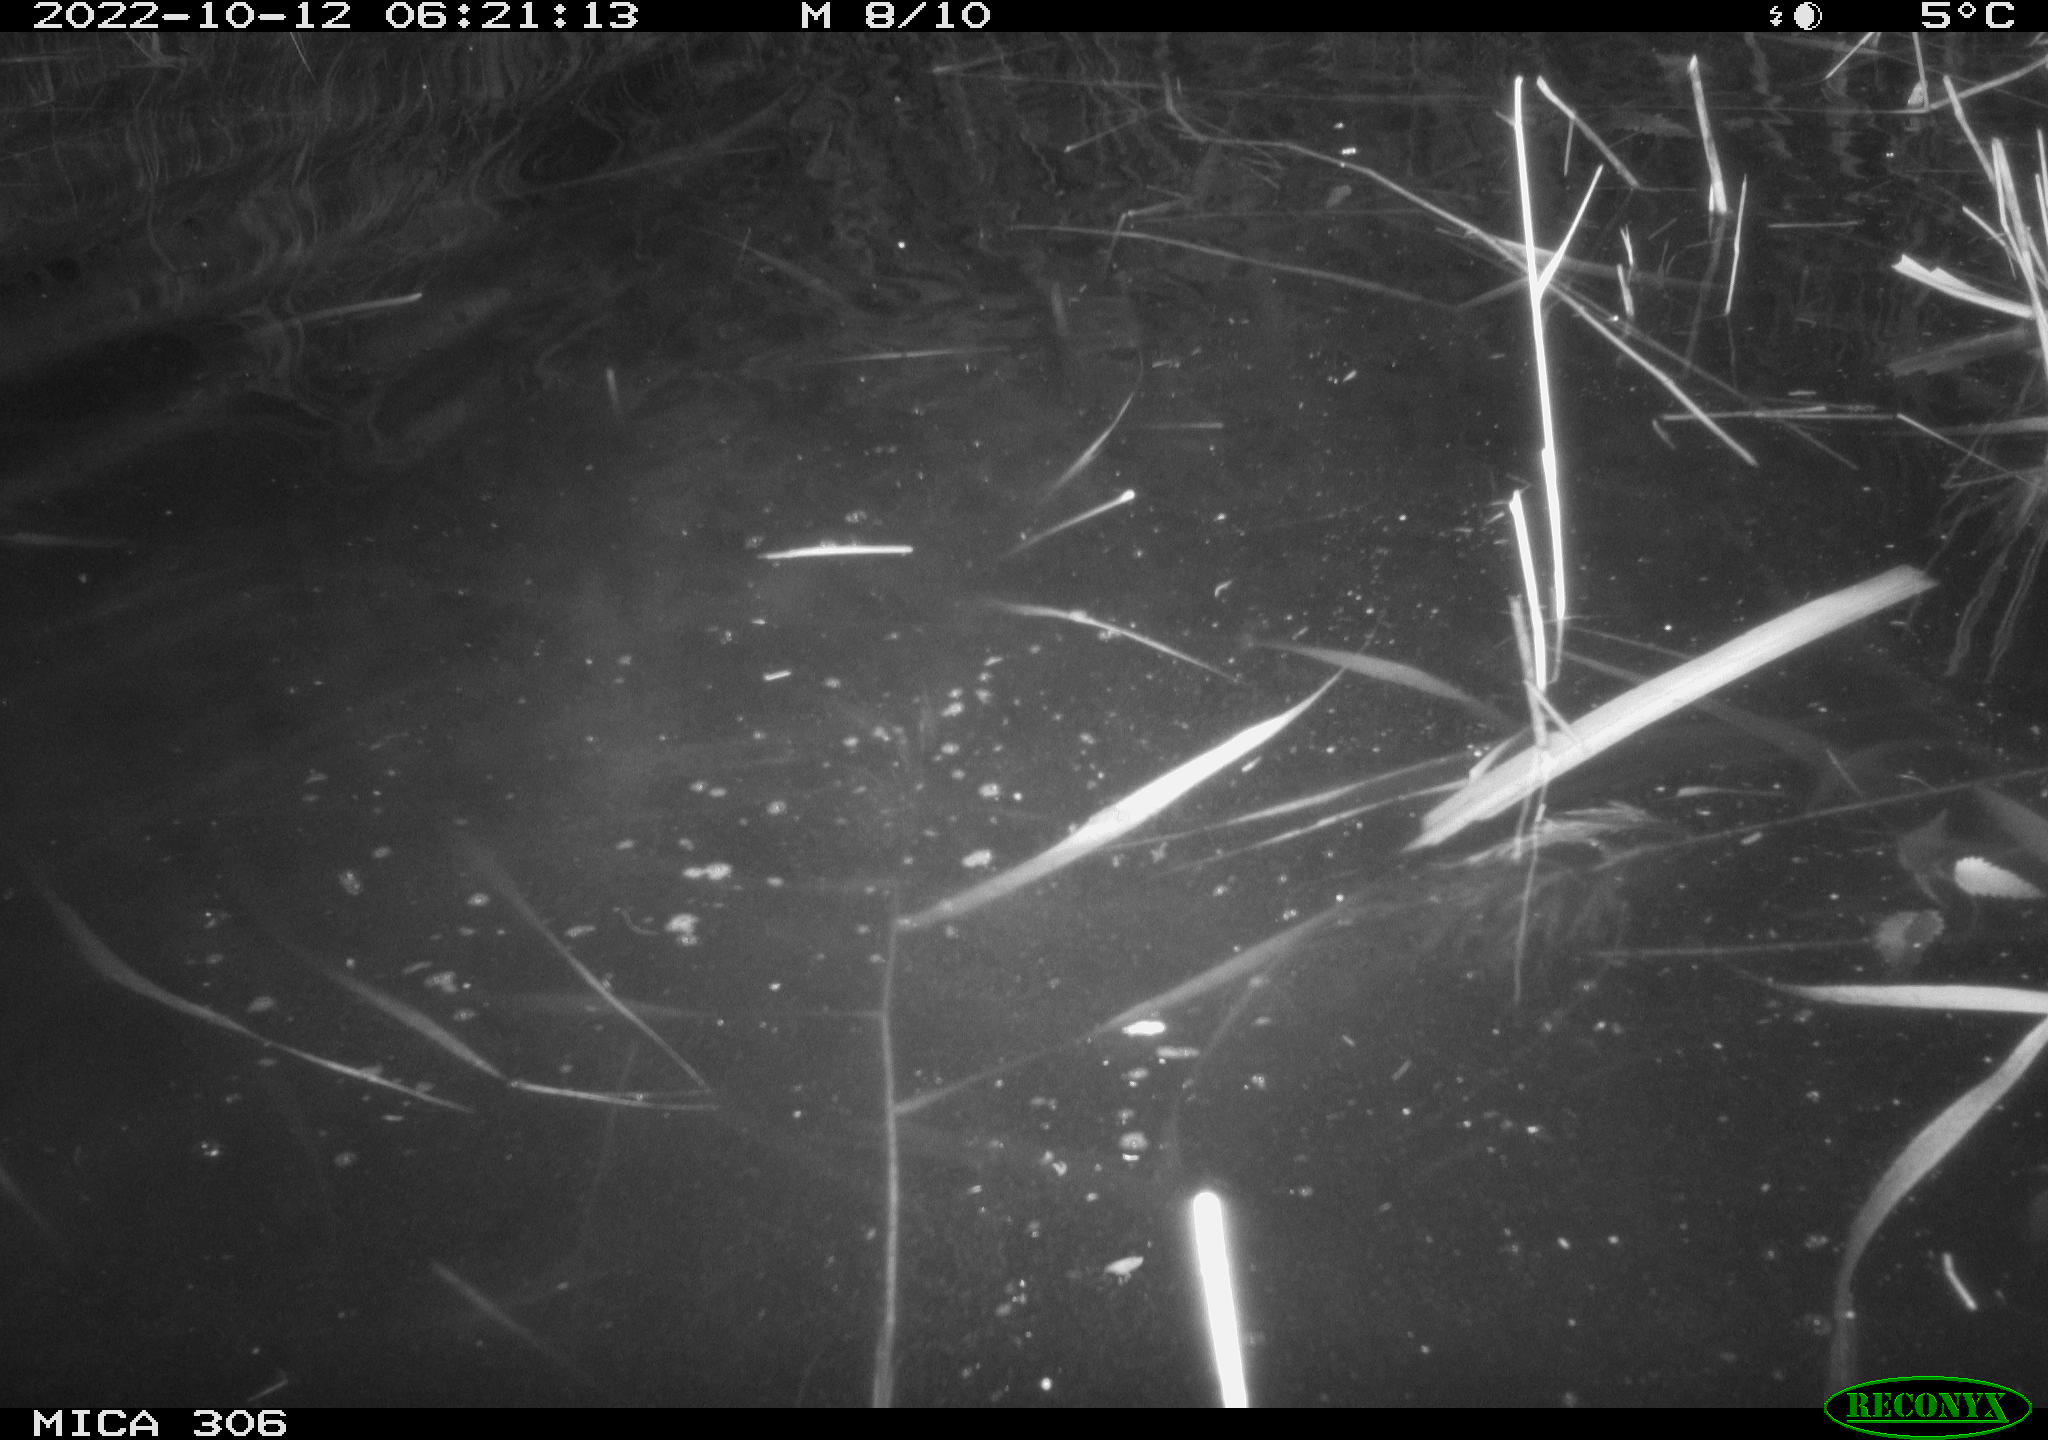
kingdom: Animalia
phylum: Chordata
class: Mammalia
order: Rodentia
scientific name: Rodentia
